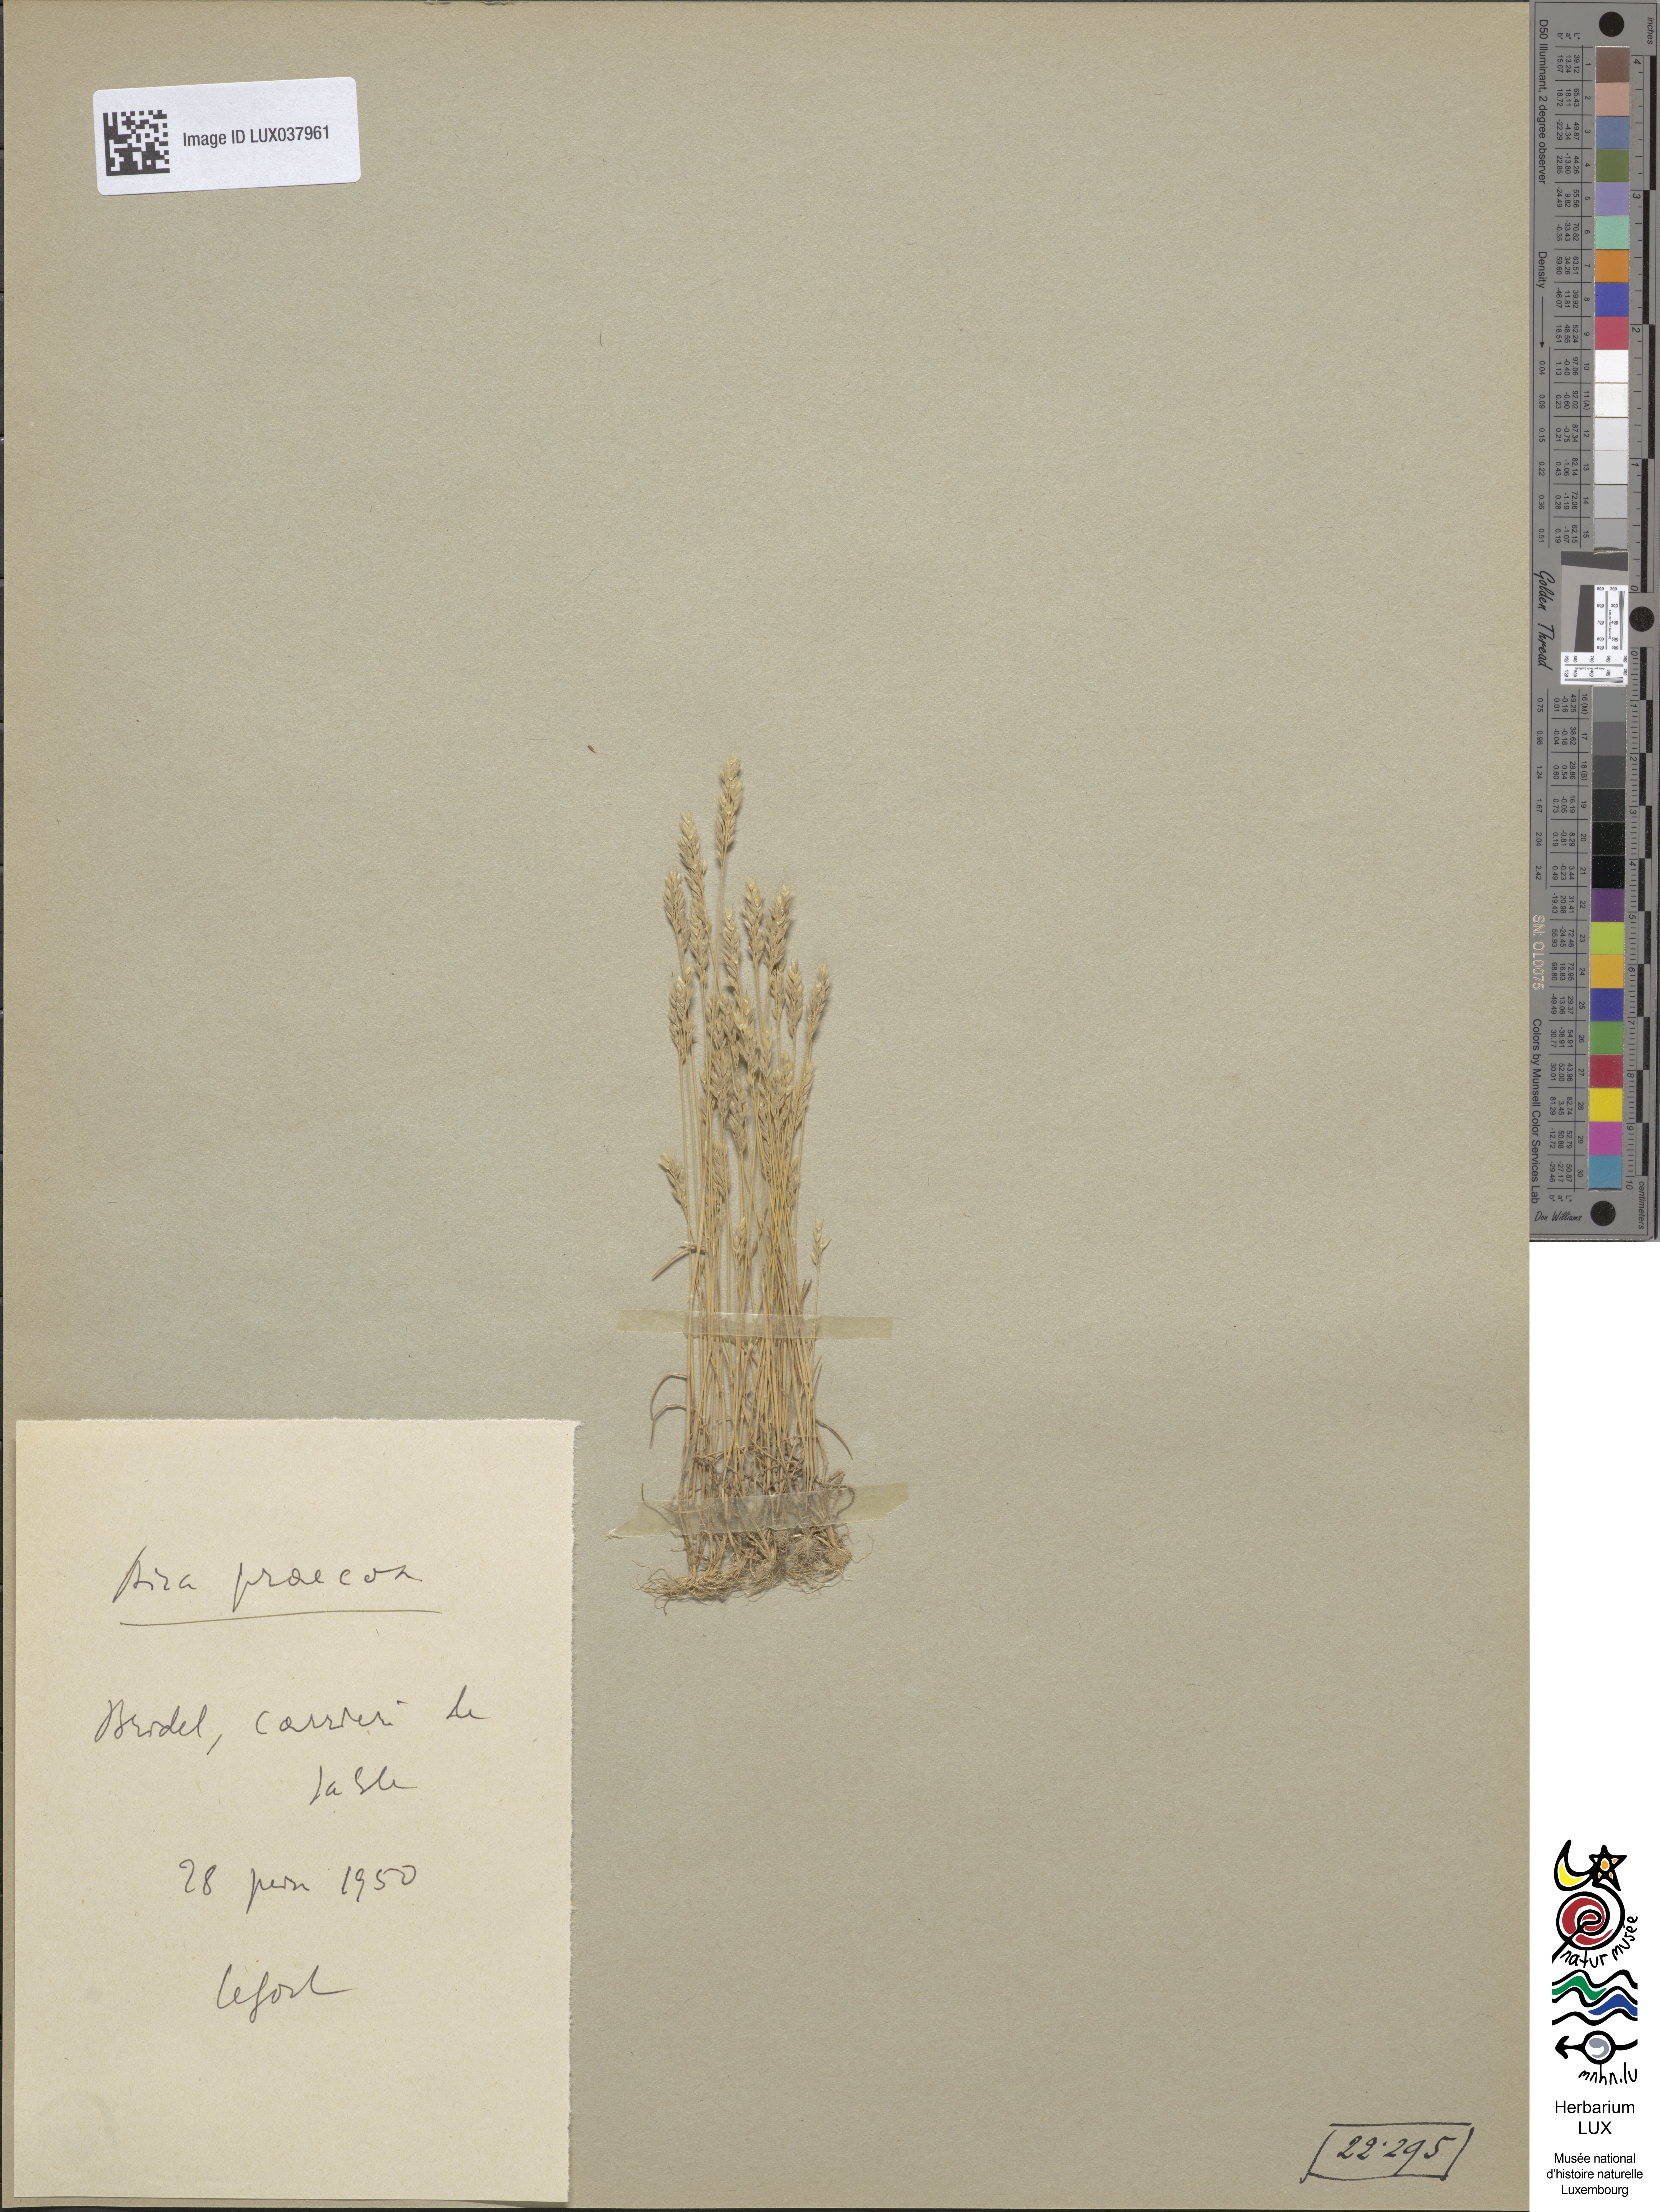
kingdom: Plantae
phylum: Tracheophyta
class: Liliopsida
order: Poales
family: Poaceae
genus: Aira
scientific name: Aira praecox
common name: Early hair-grass
